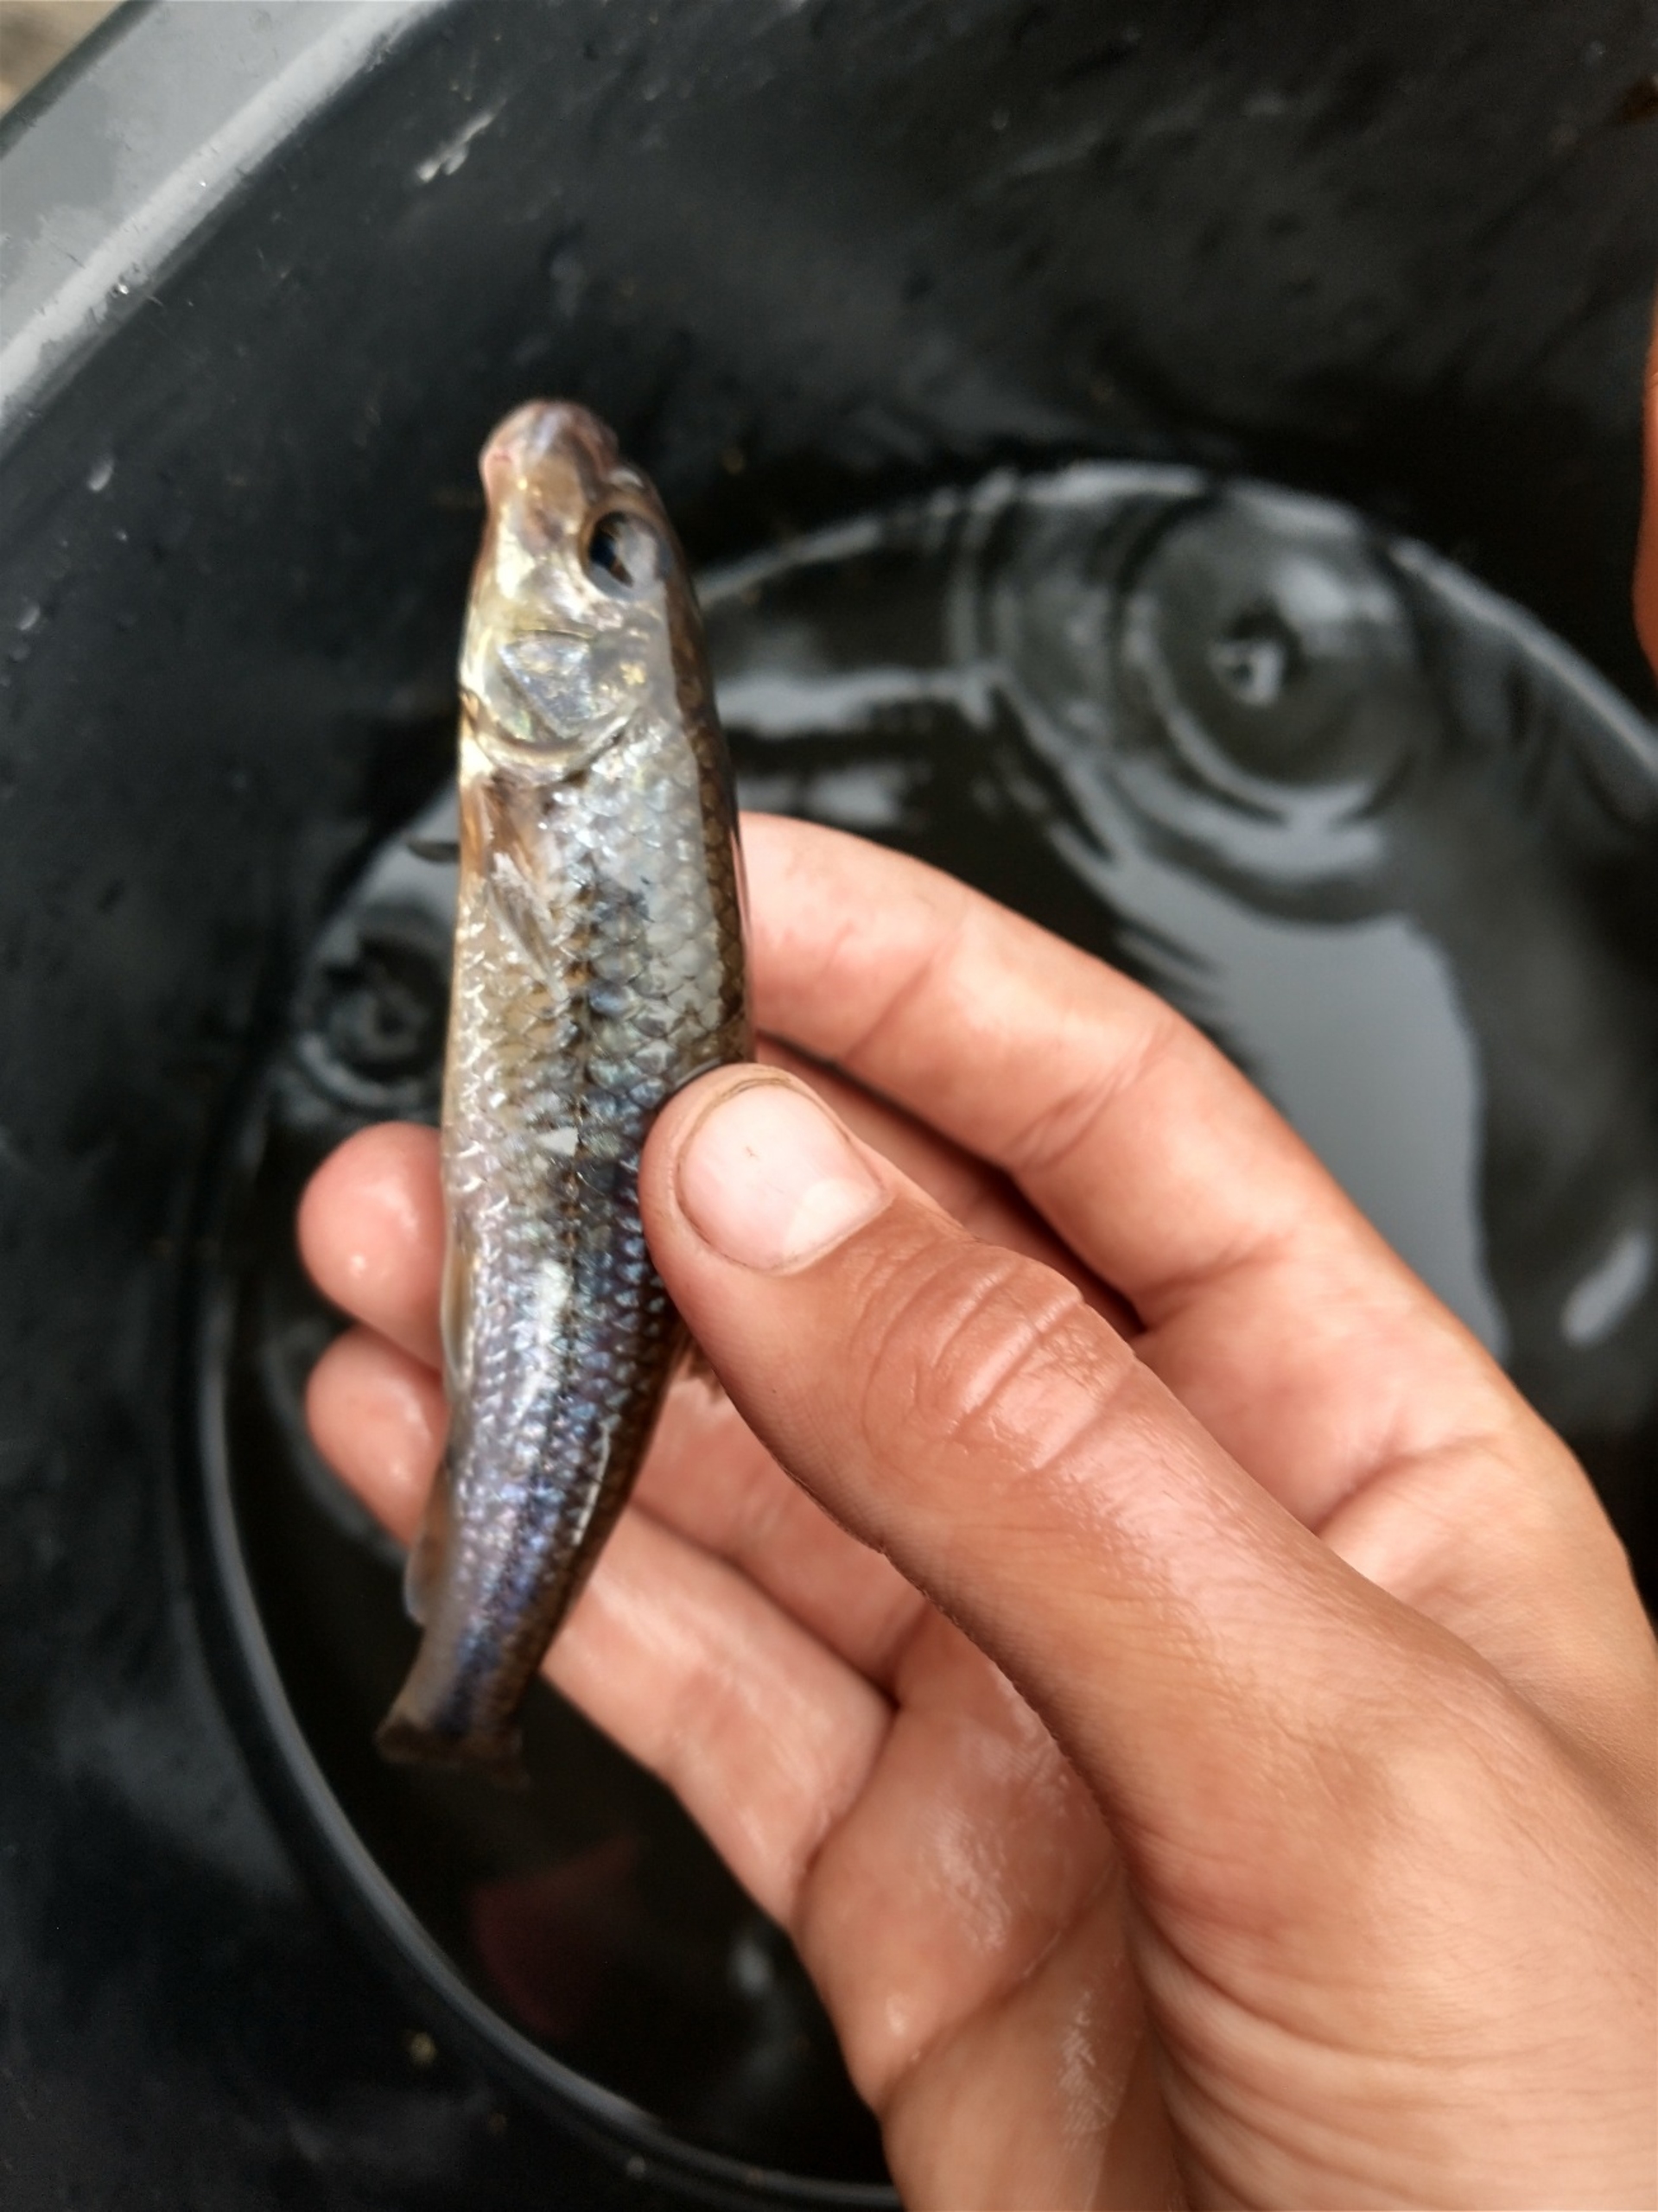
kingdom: Animalia
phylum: Chordata
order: Cypriniformes
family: Cyprinidae
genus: Gobio
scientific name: Gobio gobio
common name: Grundling
